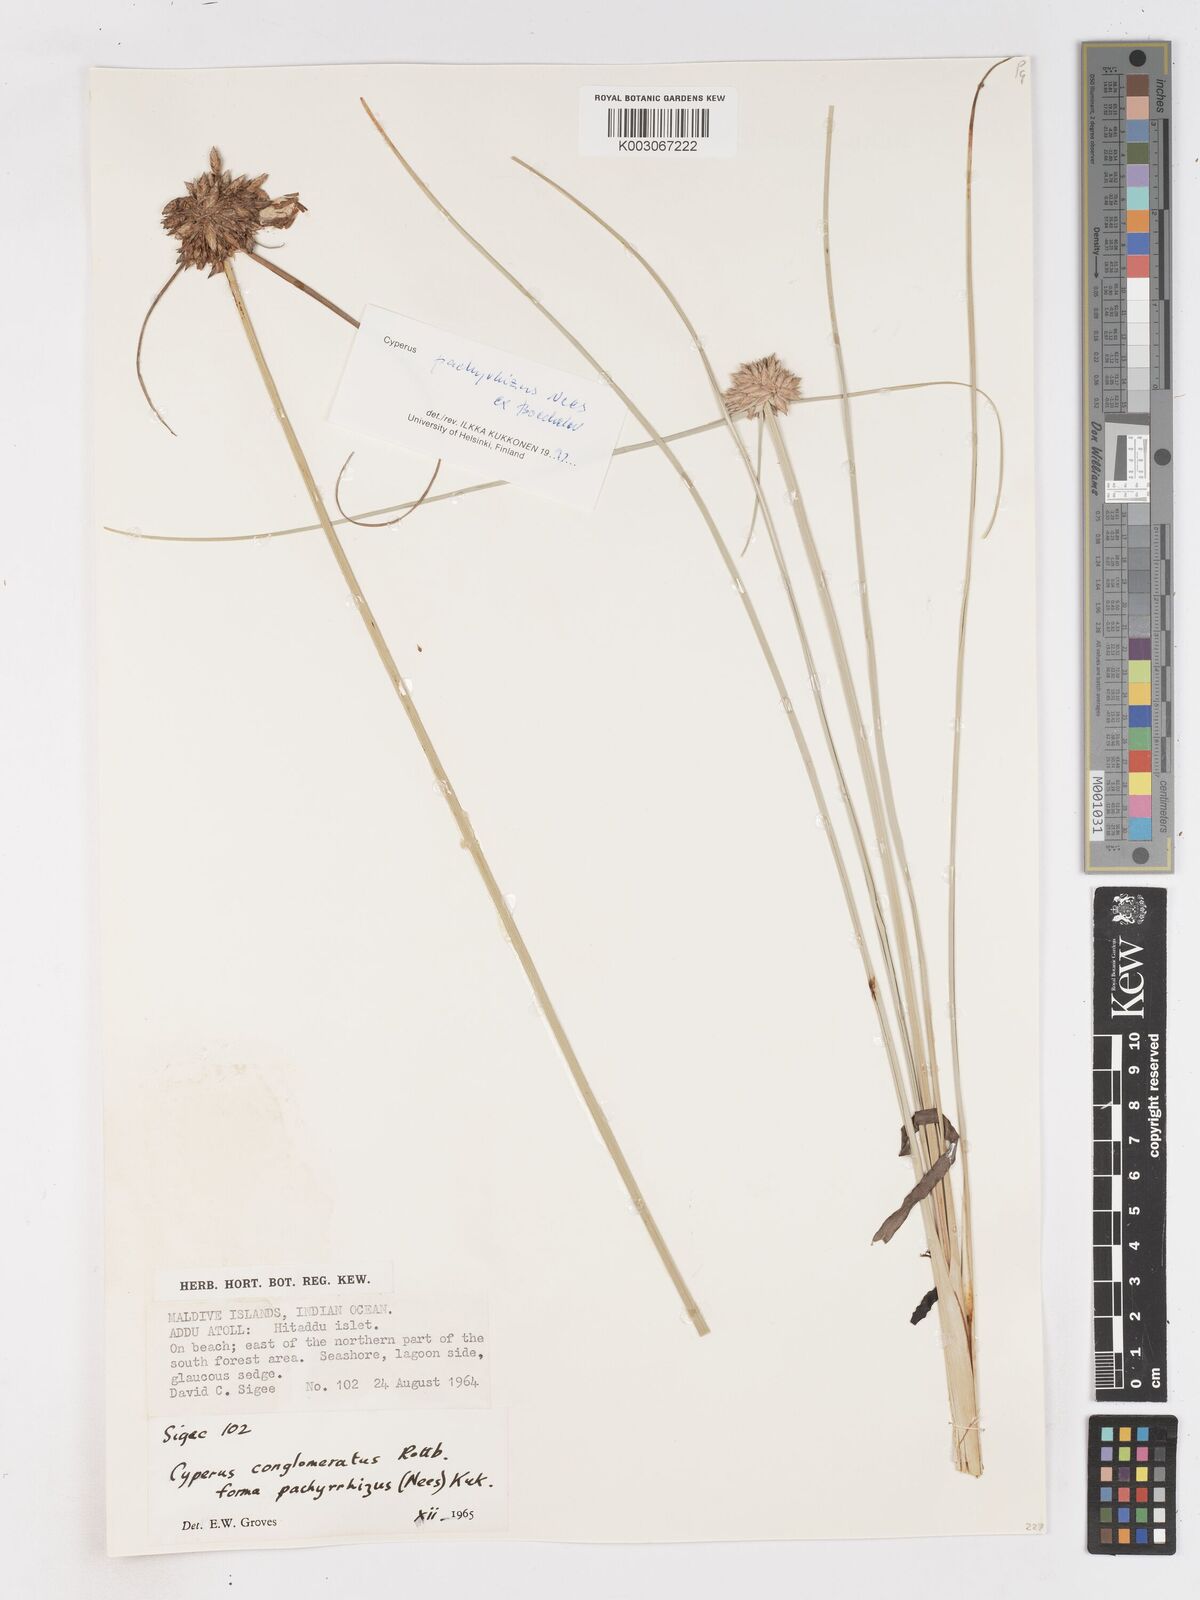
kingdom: Plantae
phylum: Tracheophyta
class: Liliopsida
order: Poales
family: Cyperaceae
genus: Cyperus
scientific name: Cyperus pachyrhizus
